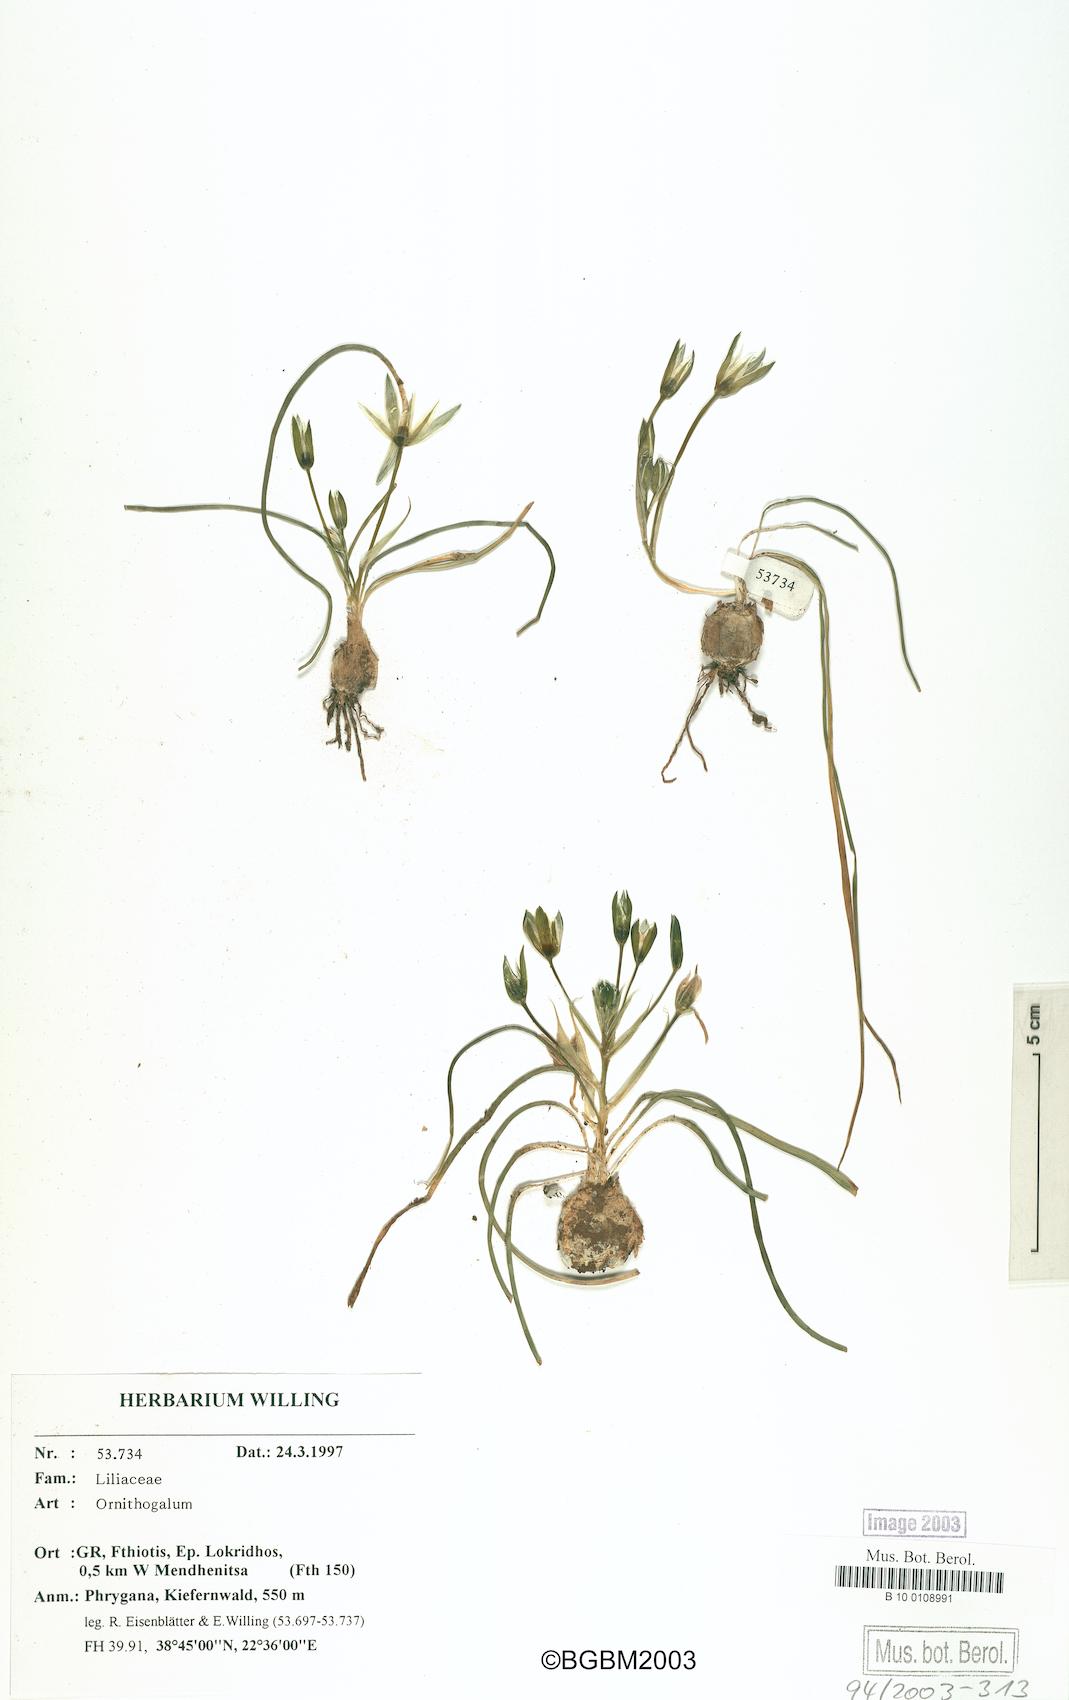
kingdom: Plantae
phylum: Tracheophyta
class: Liliopsida
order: Asparagales
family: Asparagaceae
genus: Ornithogalum
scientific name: Ornithogalum
